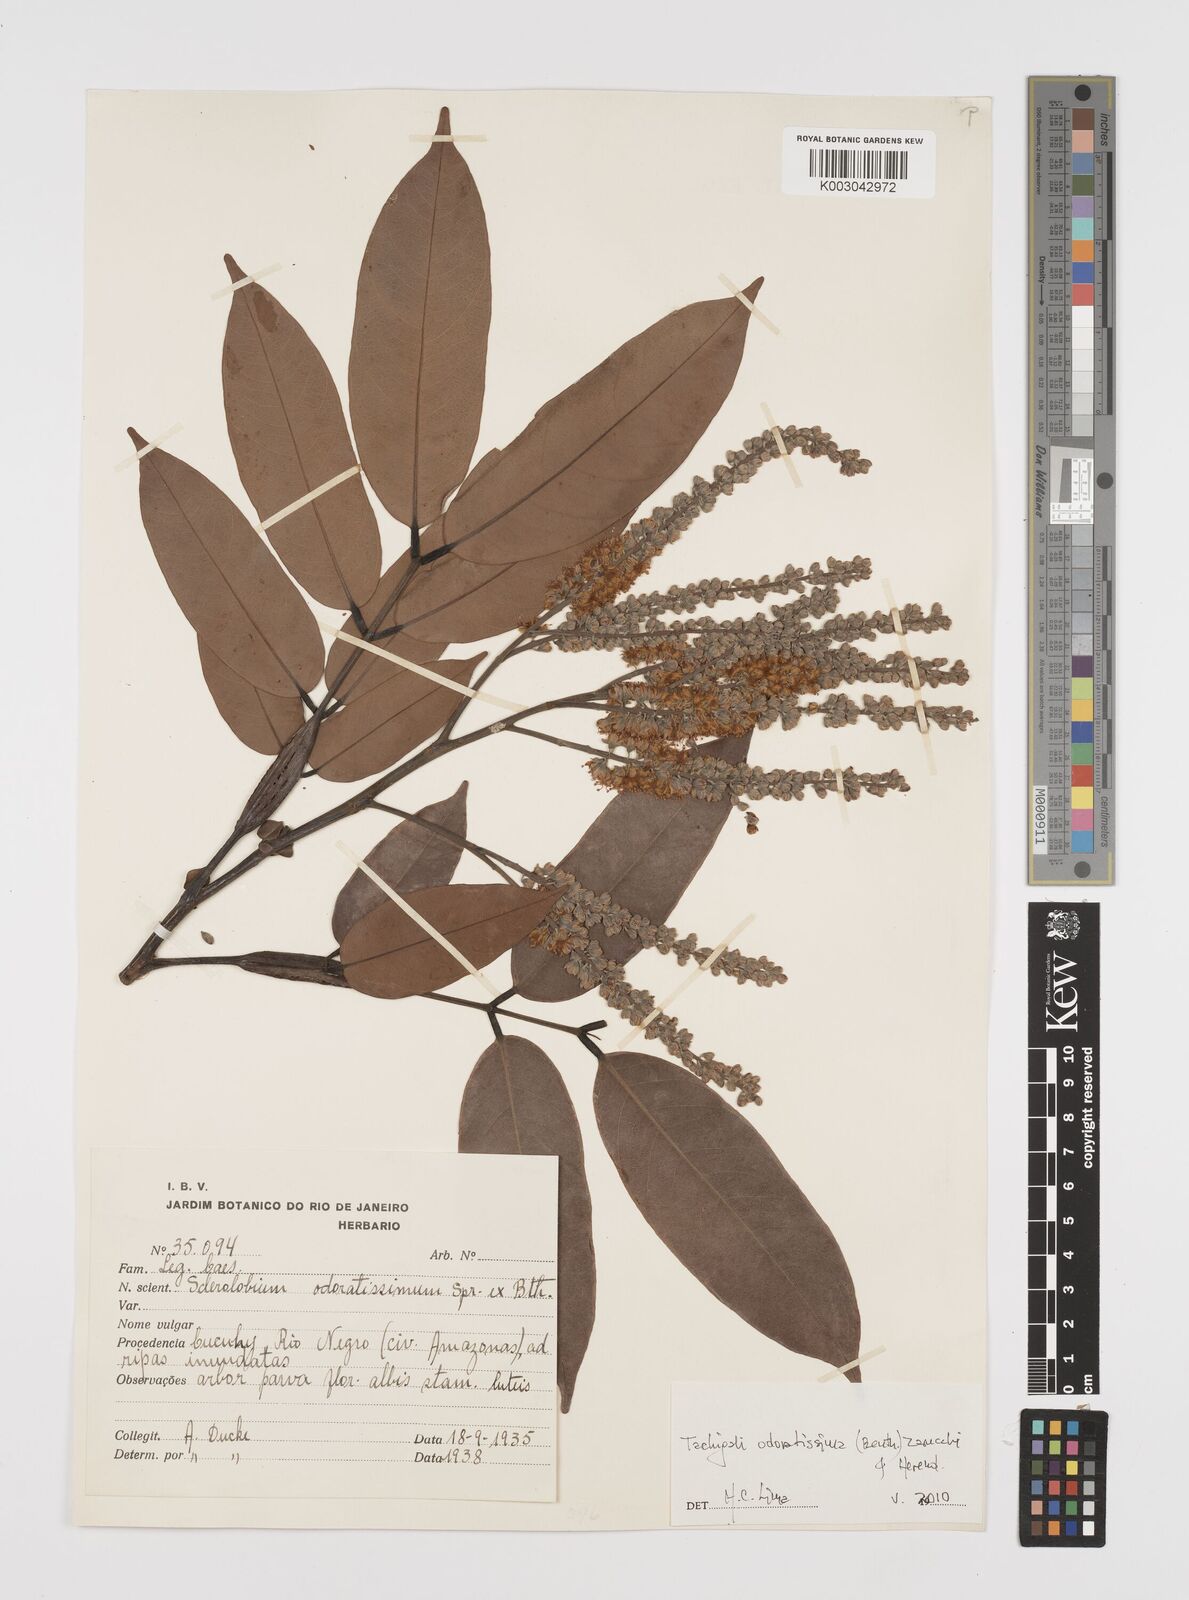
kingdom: Plantae
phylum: Tracheophyta
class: Magnoliopsida
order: Fabales
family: Fabaceae
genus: Tachigali
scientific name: Tachigali odoratissima
